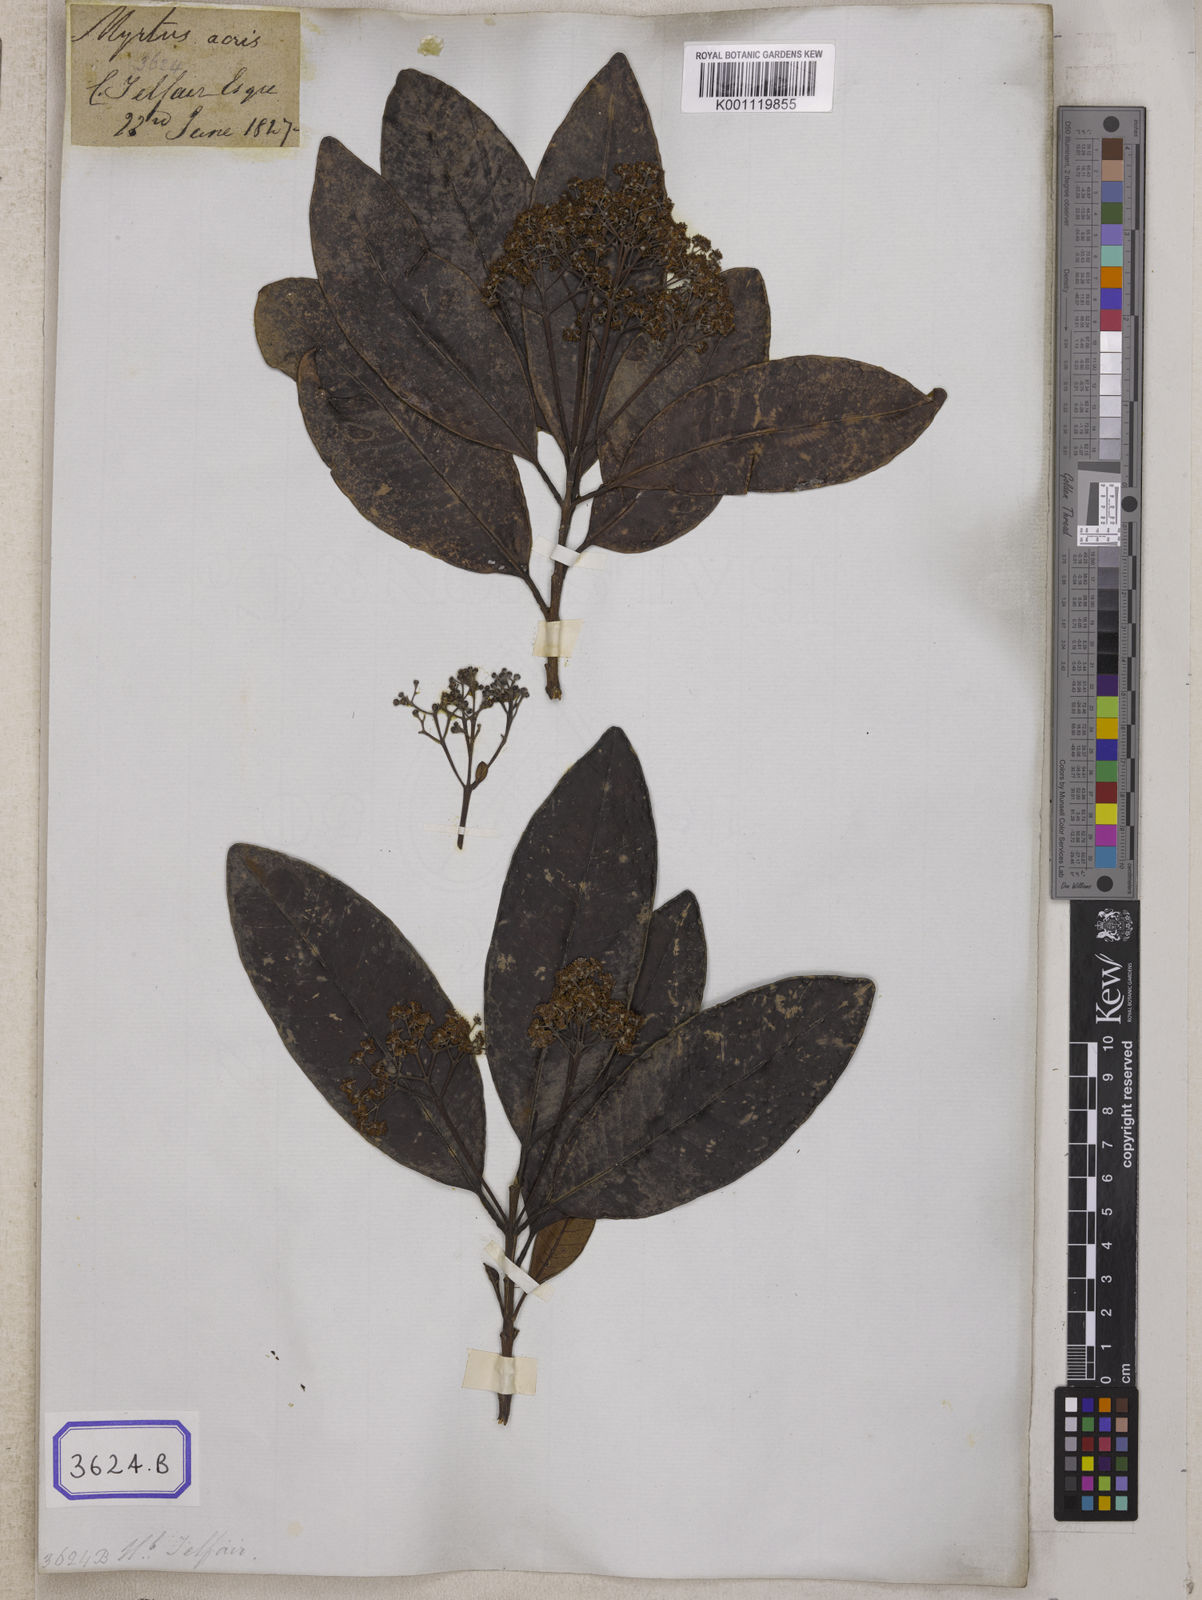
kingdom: Plantae
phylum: Tracheophyta
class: Magnoliopsida
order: Myrtales
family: Myrtaceae
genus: Pimenta
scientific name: Pimenta dioica
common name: Allspice
